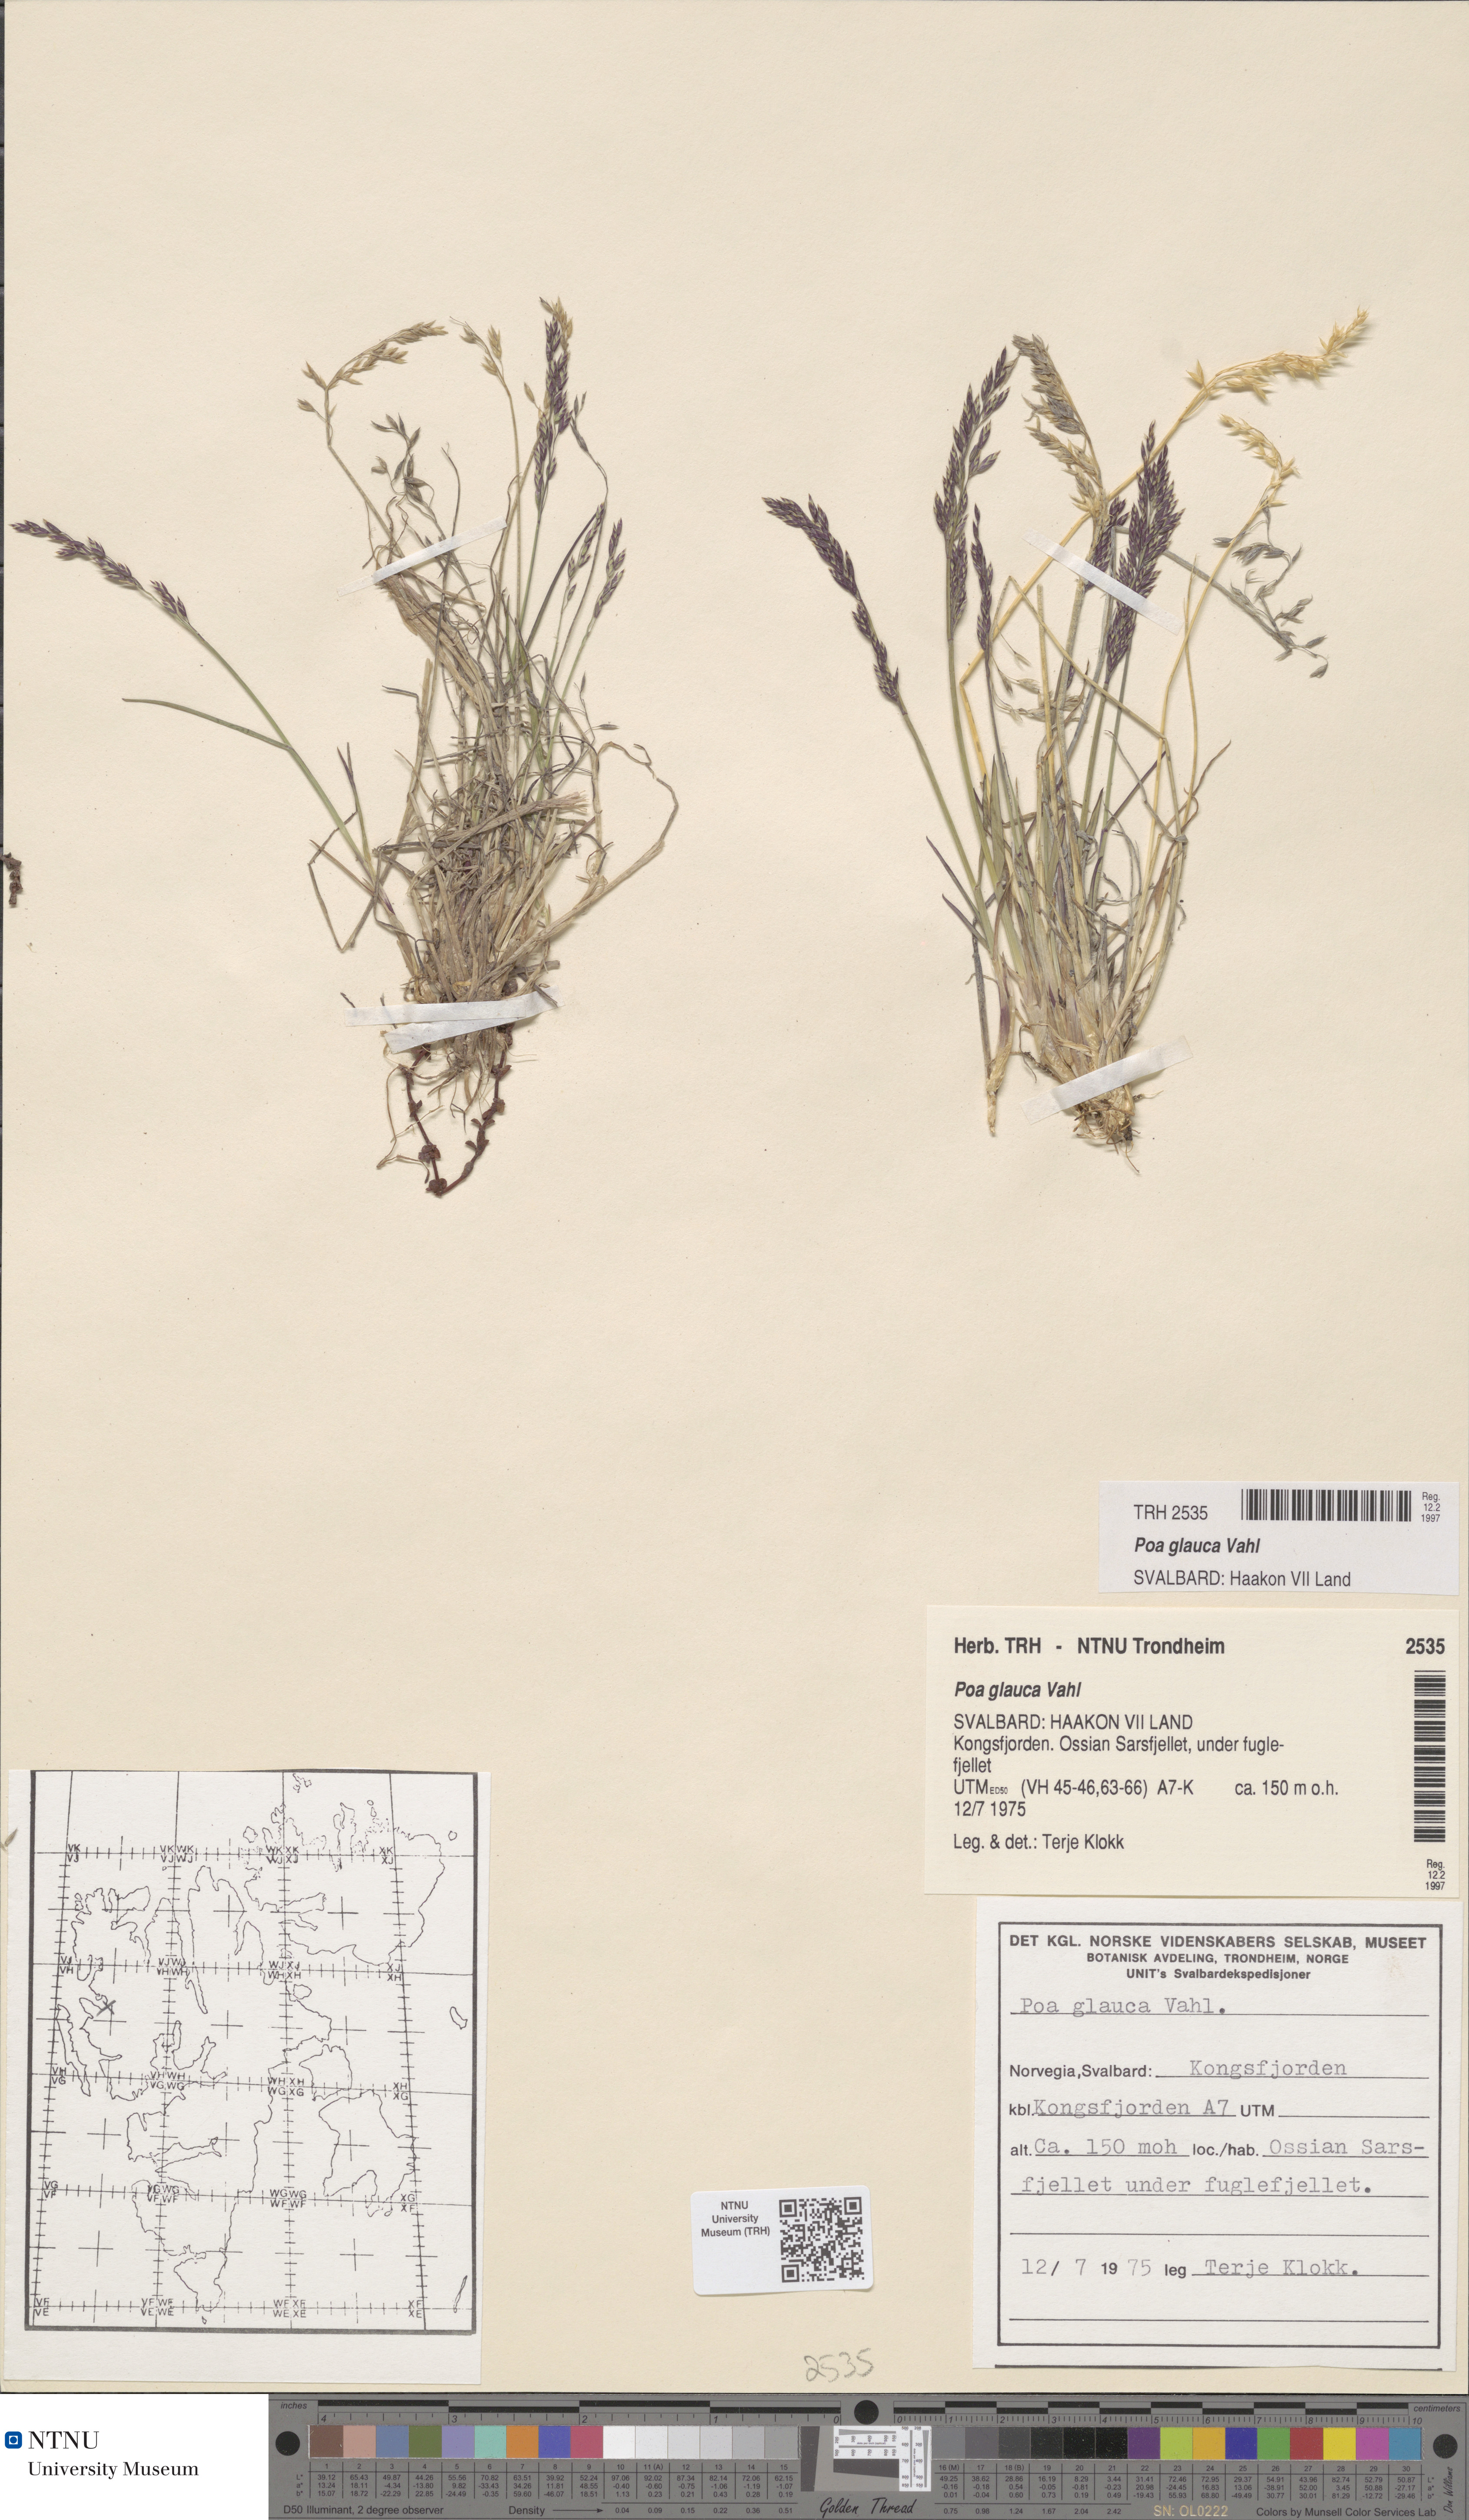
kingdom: Plantae
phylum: Tracheophyta
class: Liliopsida
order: Poales
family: Poaceae
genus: Poa
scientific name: Poa glauca
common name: Glaucous bluegrass
